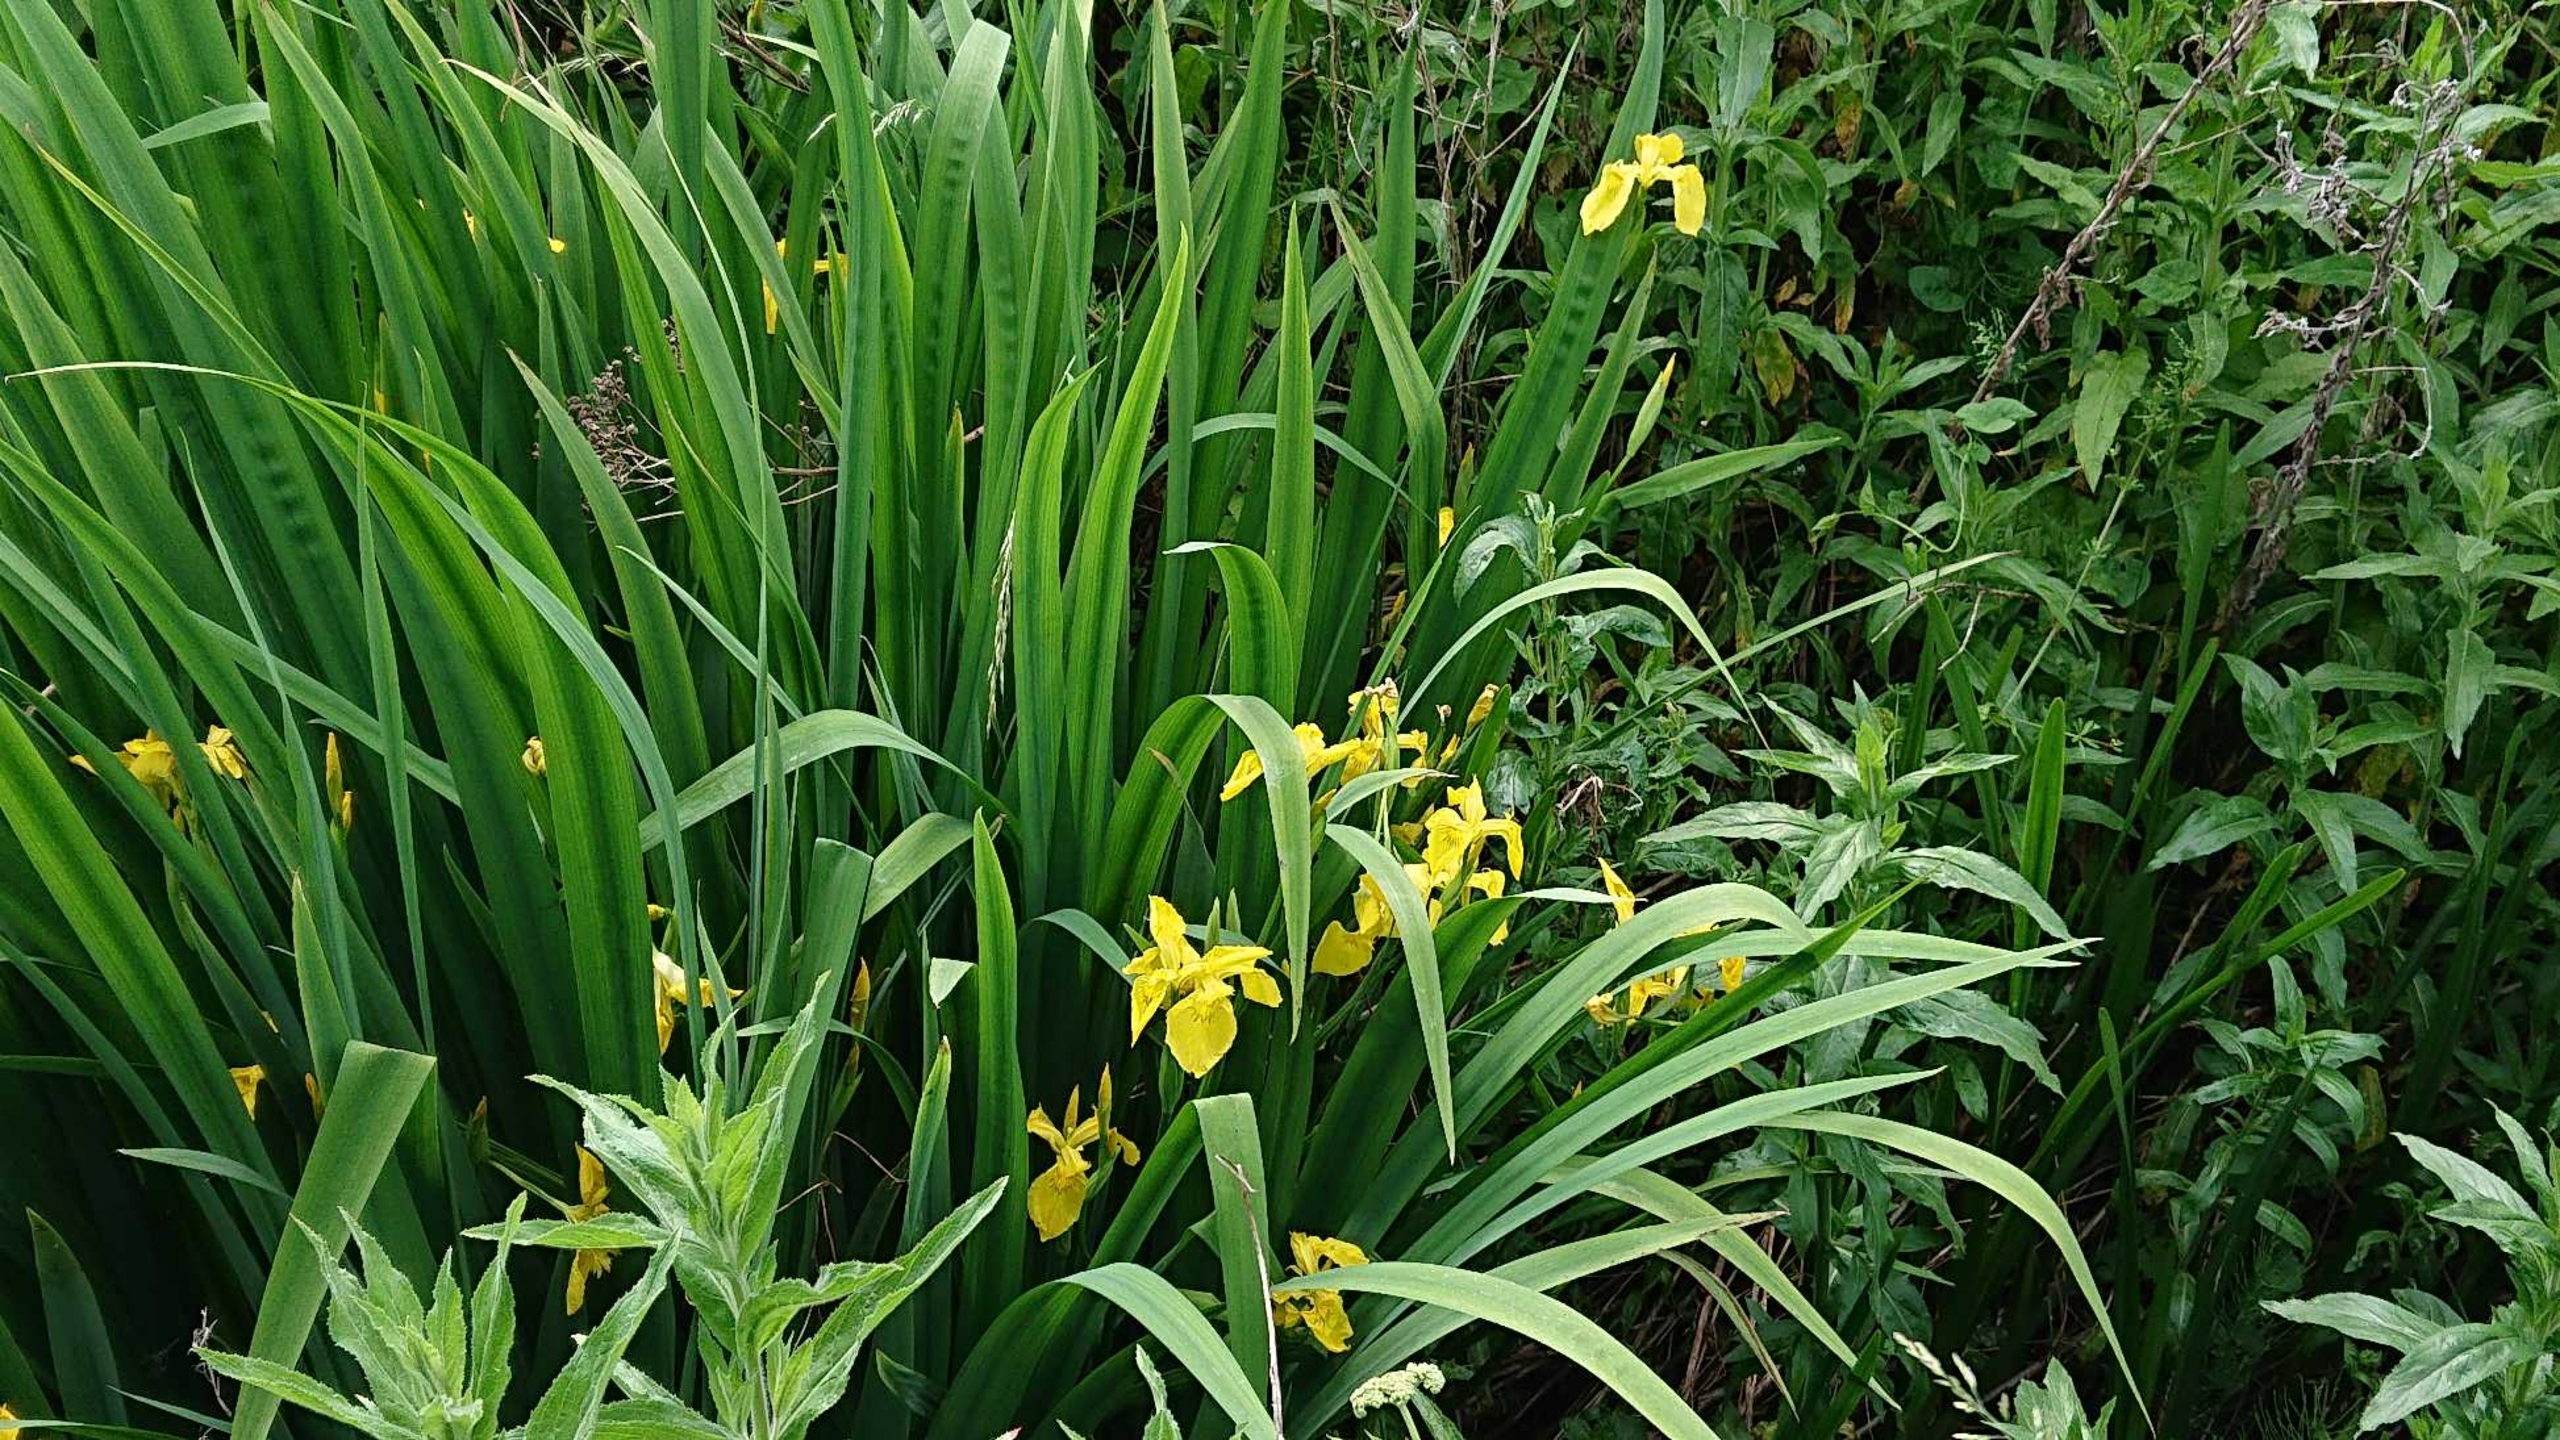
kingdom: Plantae
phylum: Tracheophyta
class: Liliopsida
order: Asparagales
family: Iridaceae
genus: Iris
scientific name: Iris pseudacorus
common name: Gul iris
